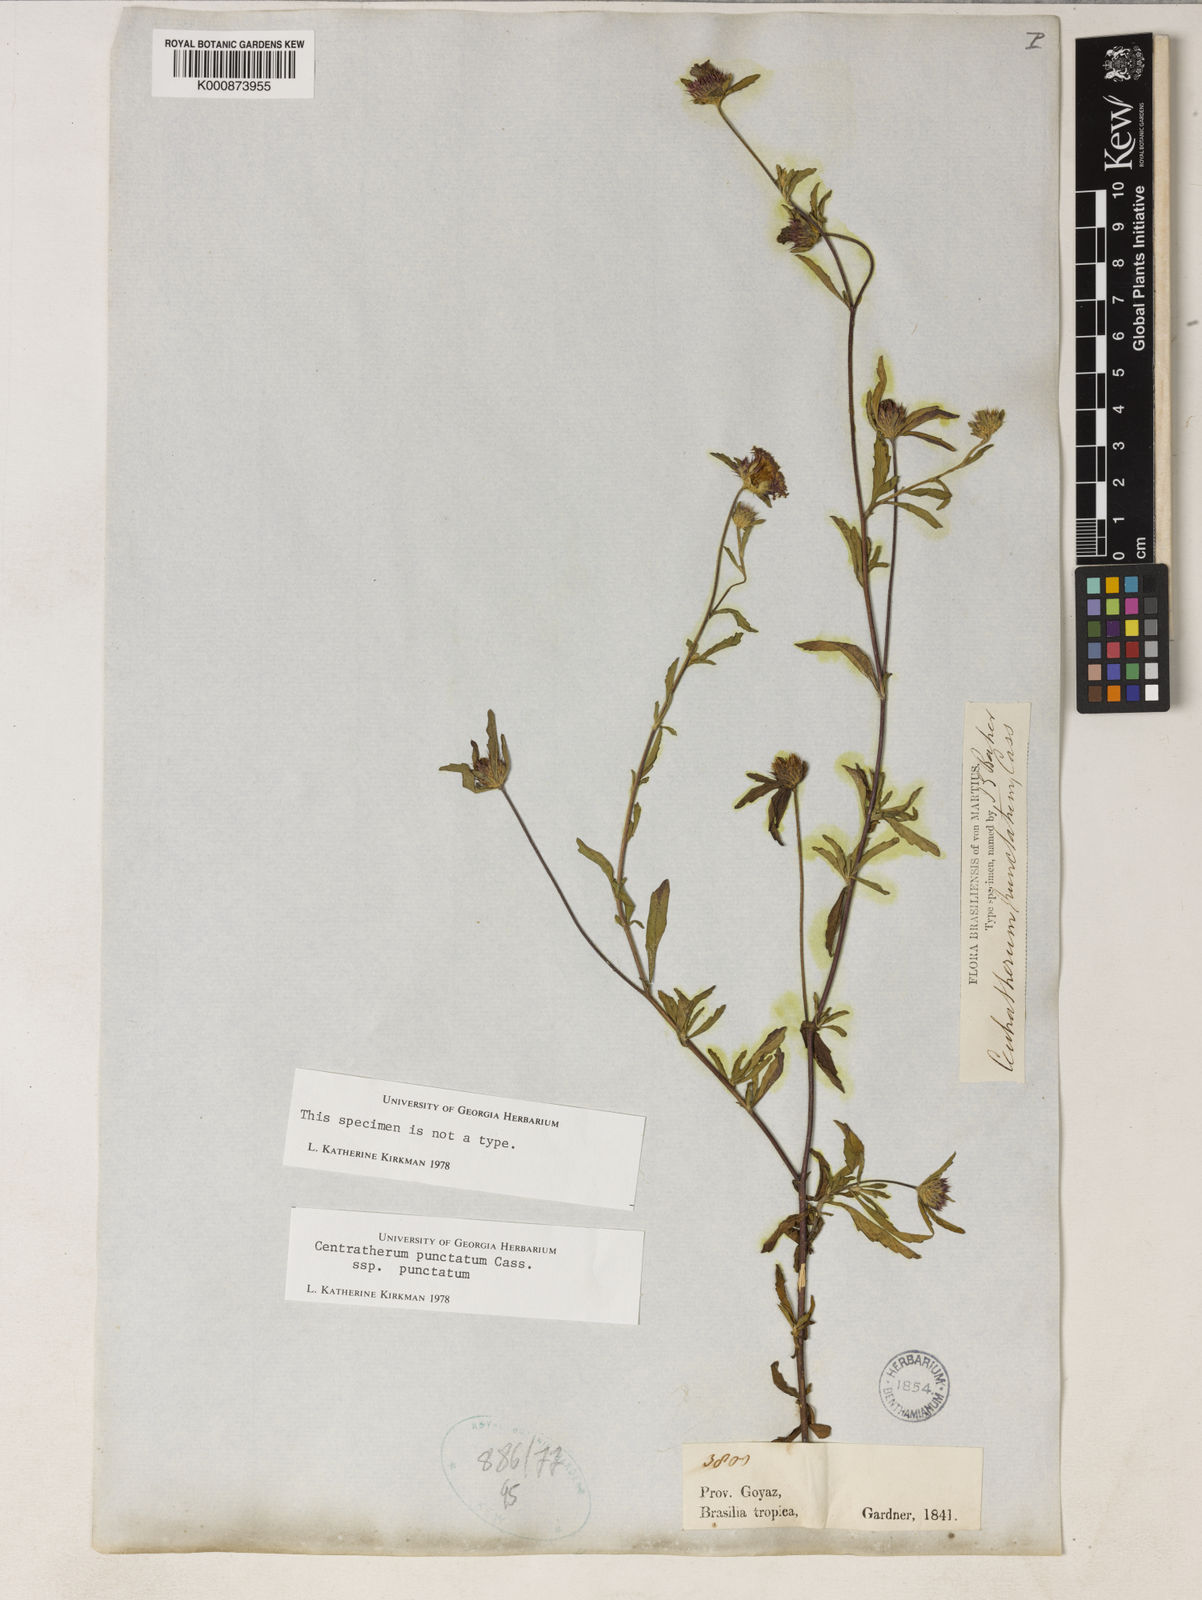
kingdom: Plantae
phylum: Tracheophyta
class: Magnoliopsida
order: Asterales
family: Asteraceae
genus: Centratherum
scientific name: Centratherum punctatum
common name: Larkdaisy
